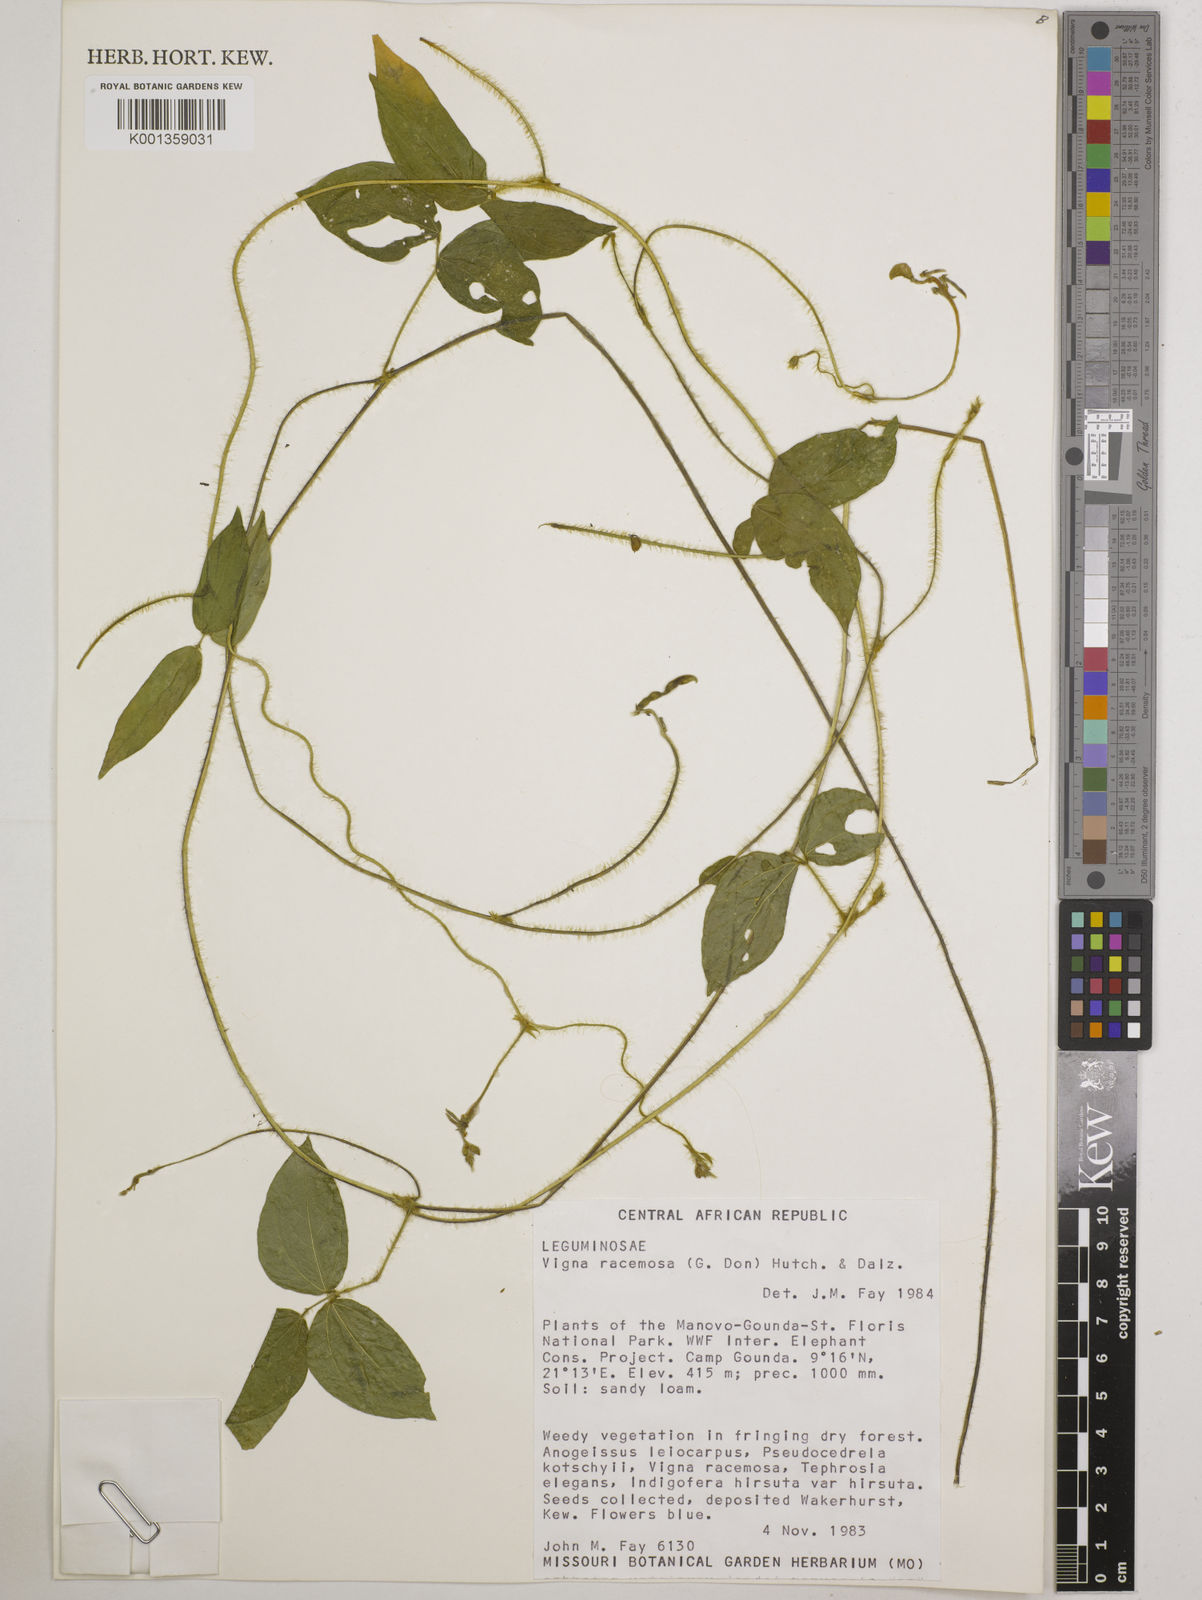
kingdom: Plantae
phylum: Tracheophyta
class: Magnoliopsida
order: Fabales
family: Fabaceae
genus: Vigna
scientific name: Vigna racemosa
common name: Beans not eaten
